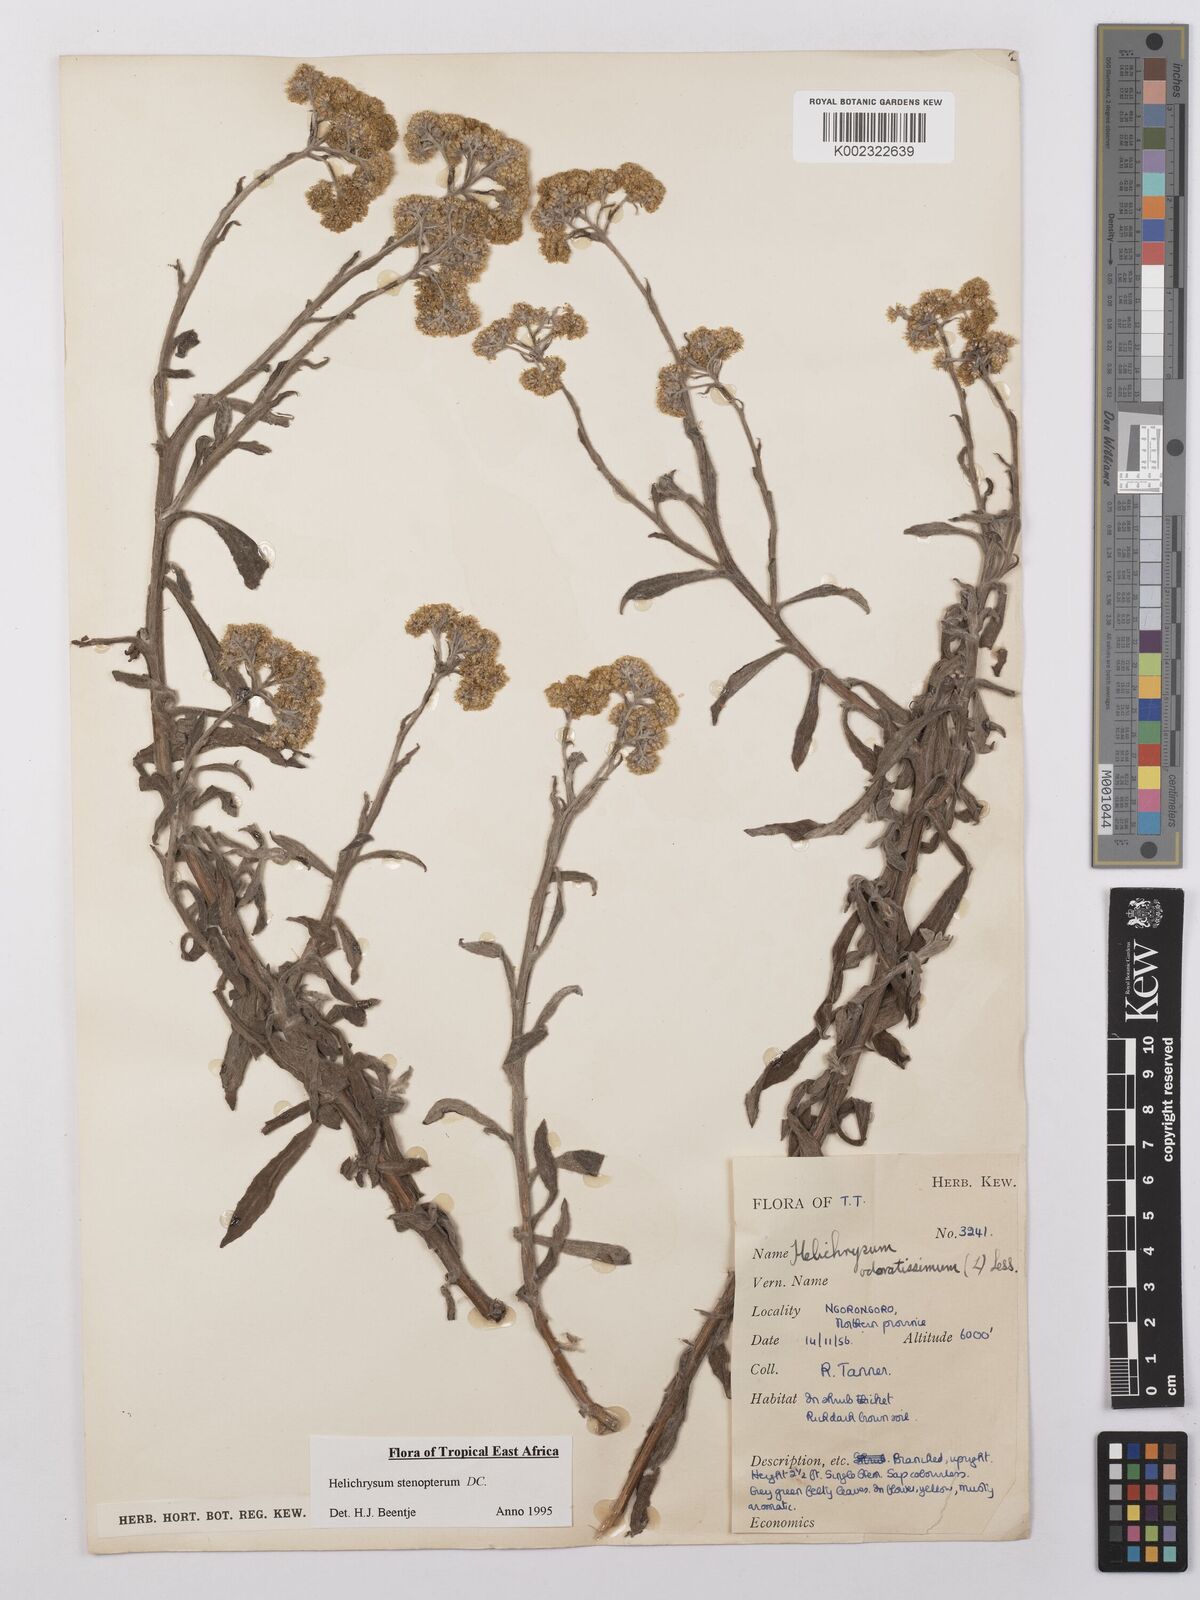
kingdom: Plantae
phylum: Tracheophyta
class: Magnoliopsida
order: Asterales
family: Asteraceae
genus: Helichrysum
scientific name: Helichrysum stenopterum
